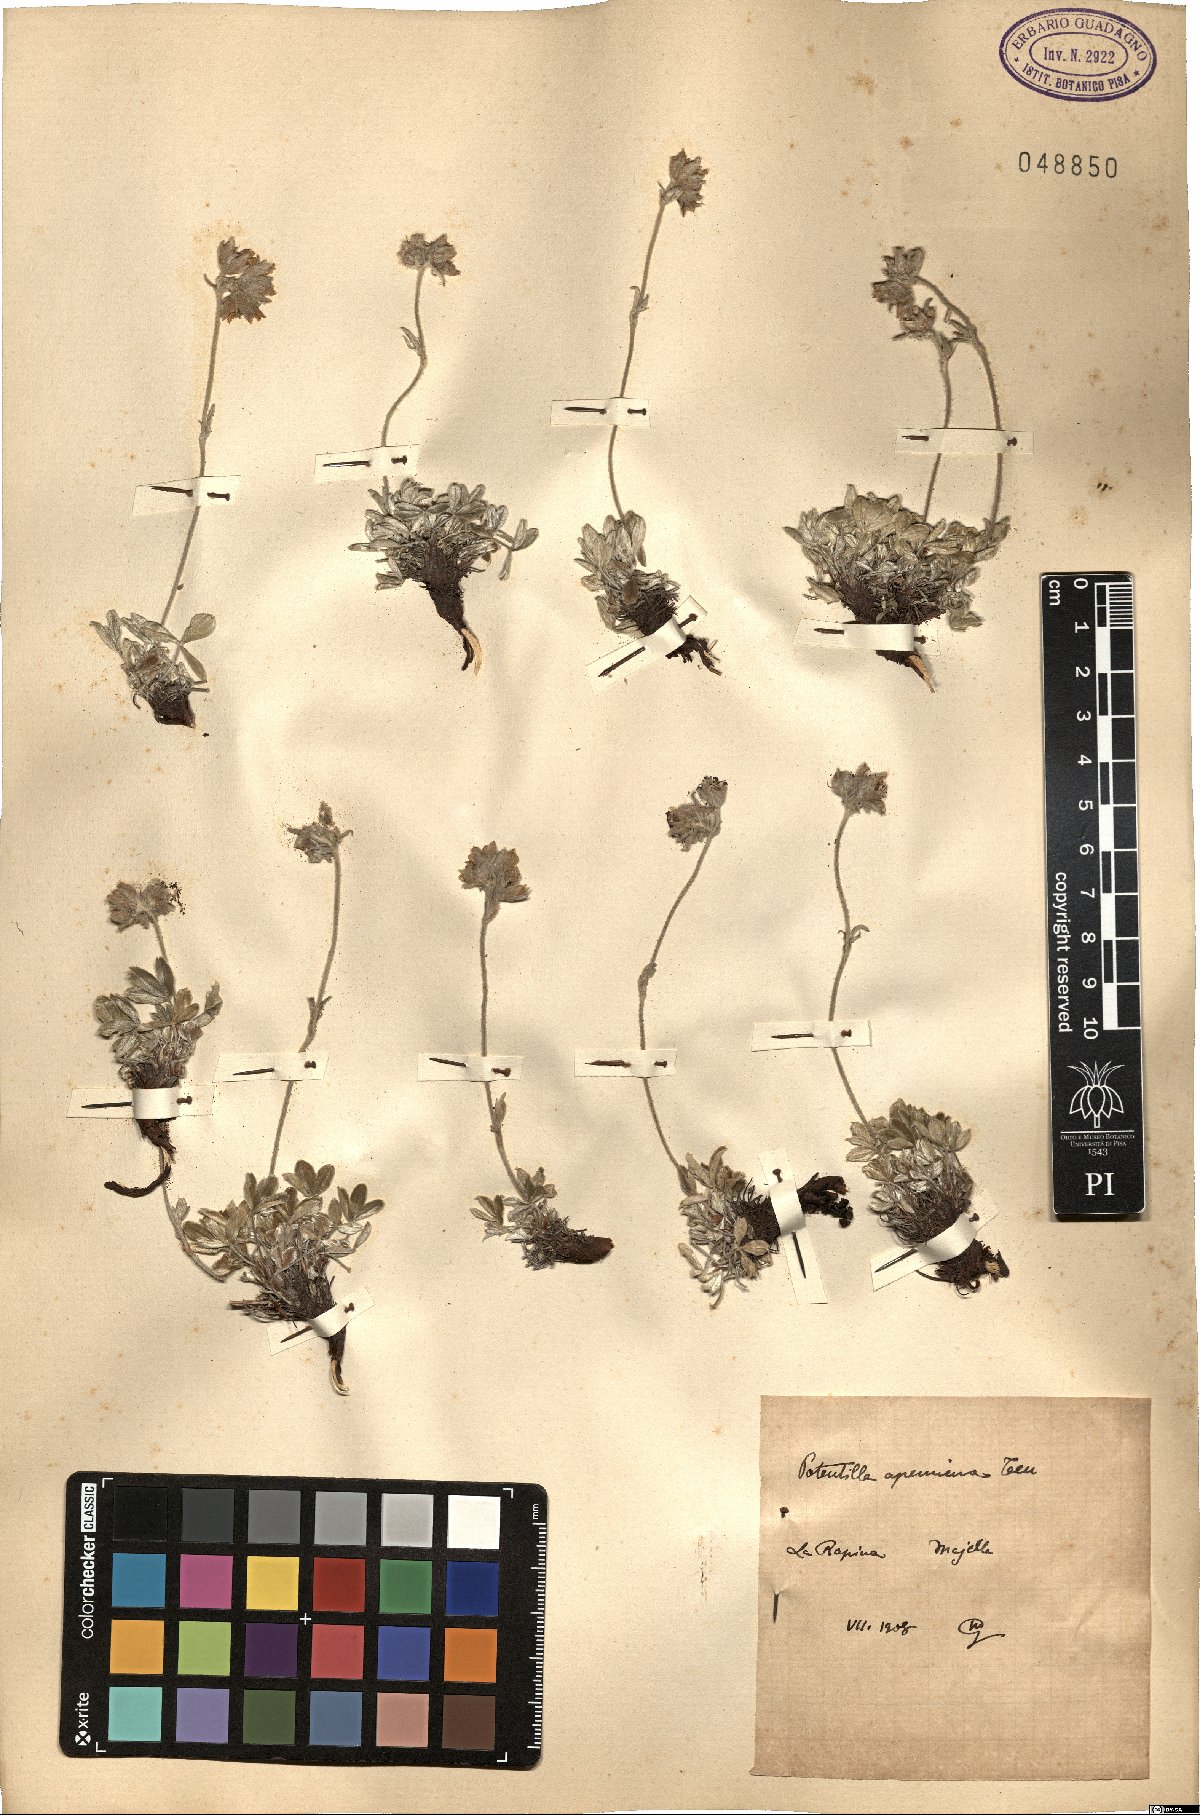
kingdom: Plantae
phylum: Tracheophyta
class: Magnoliopsida
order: Rosales
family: Rosaceae
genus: Potentilla
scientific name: Potentilla apennina
